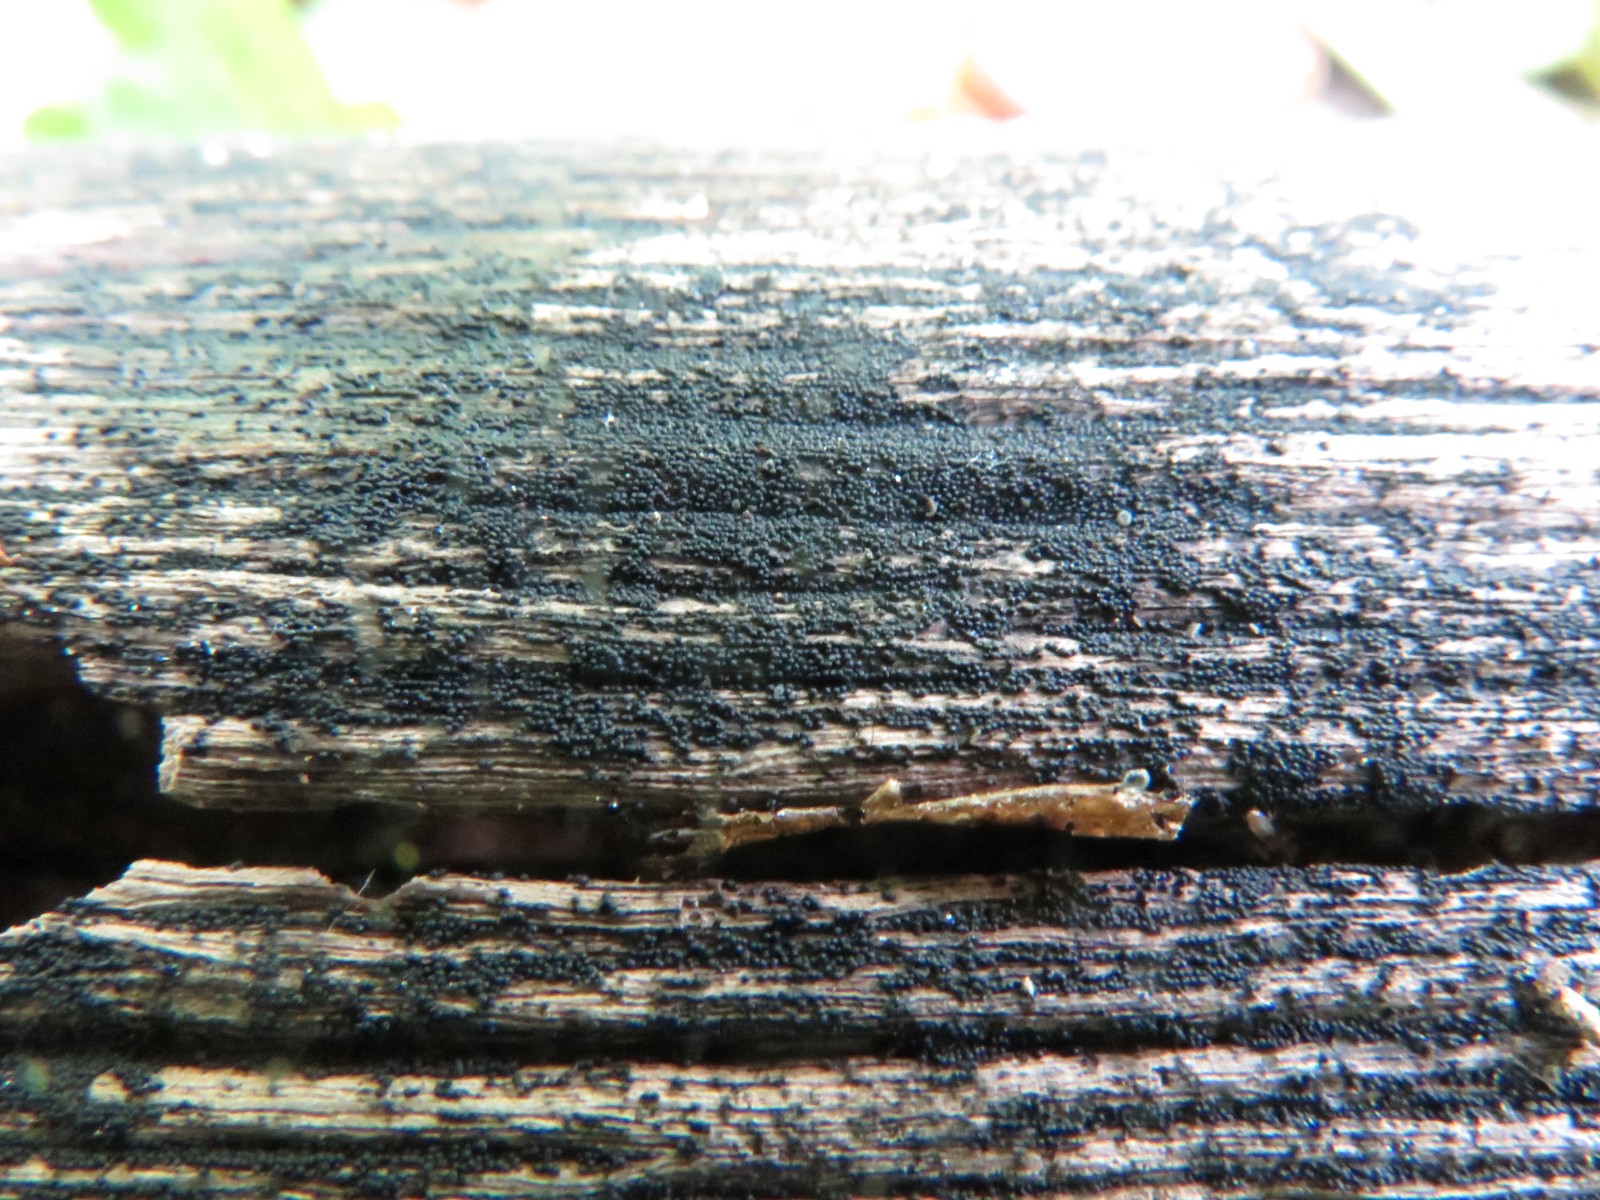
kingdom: Fungi
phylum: Ascomycota
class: Dothideomycetes
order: Pleosporales
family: Melanommataceae
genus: Melanomma
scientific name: Melanomma pulvis-pyrius
